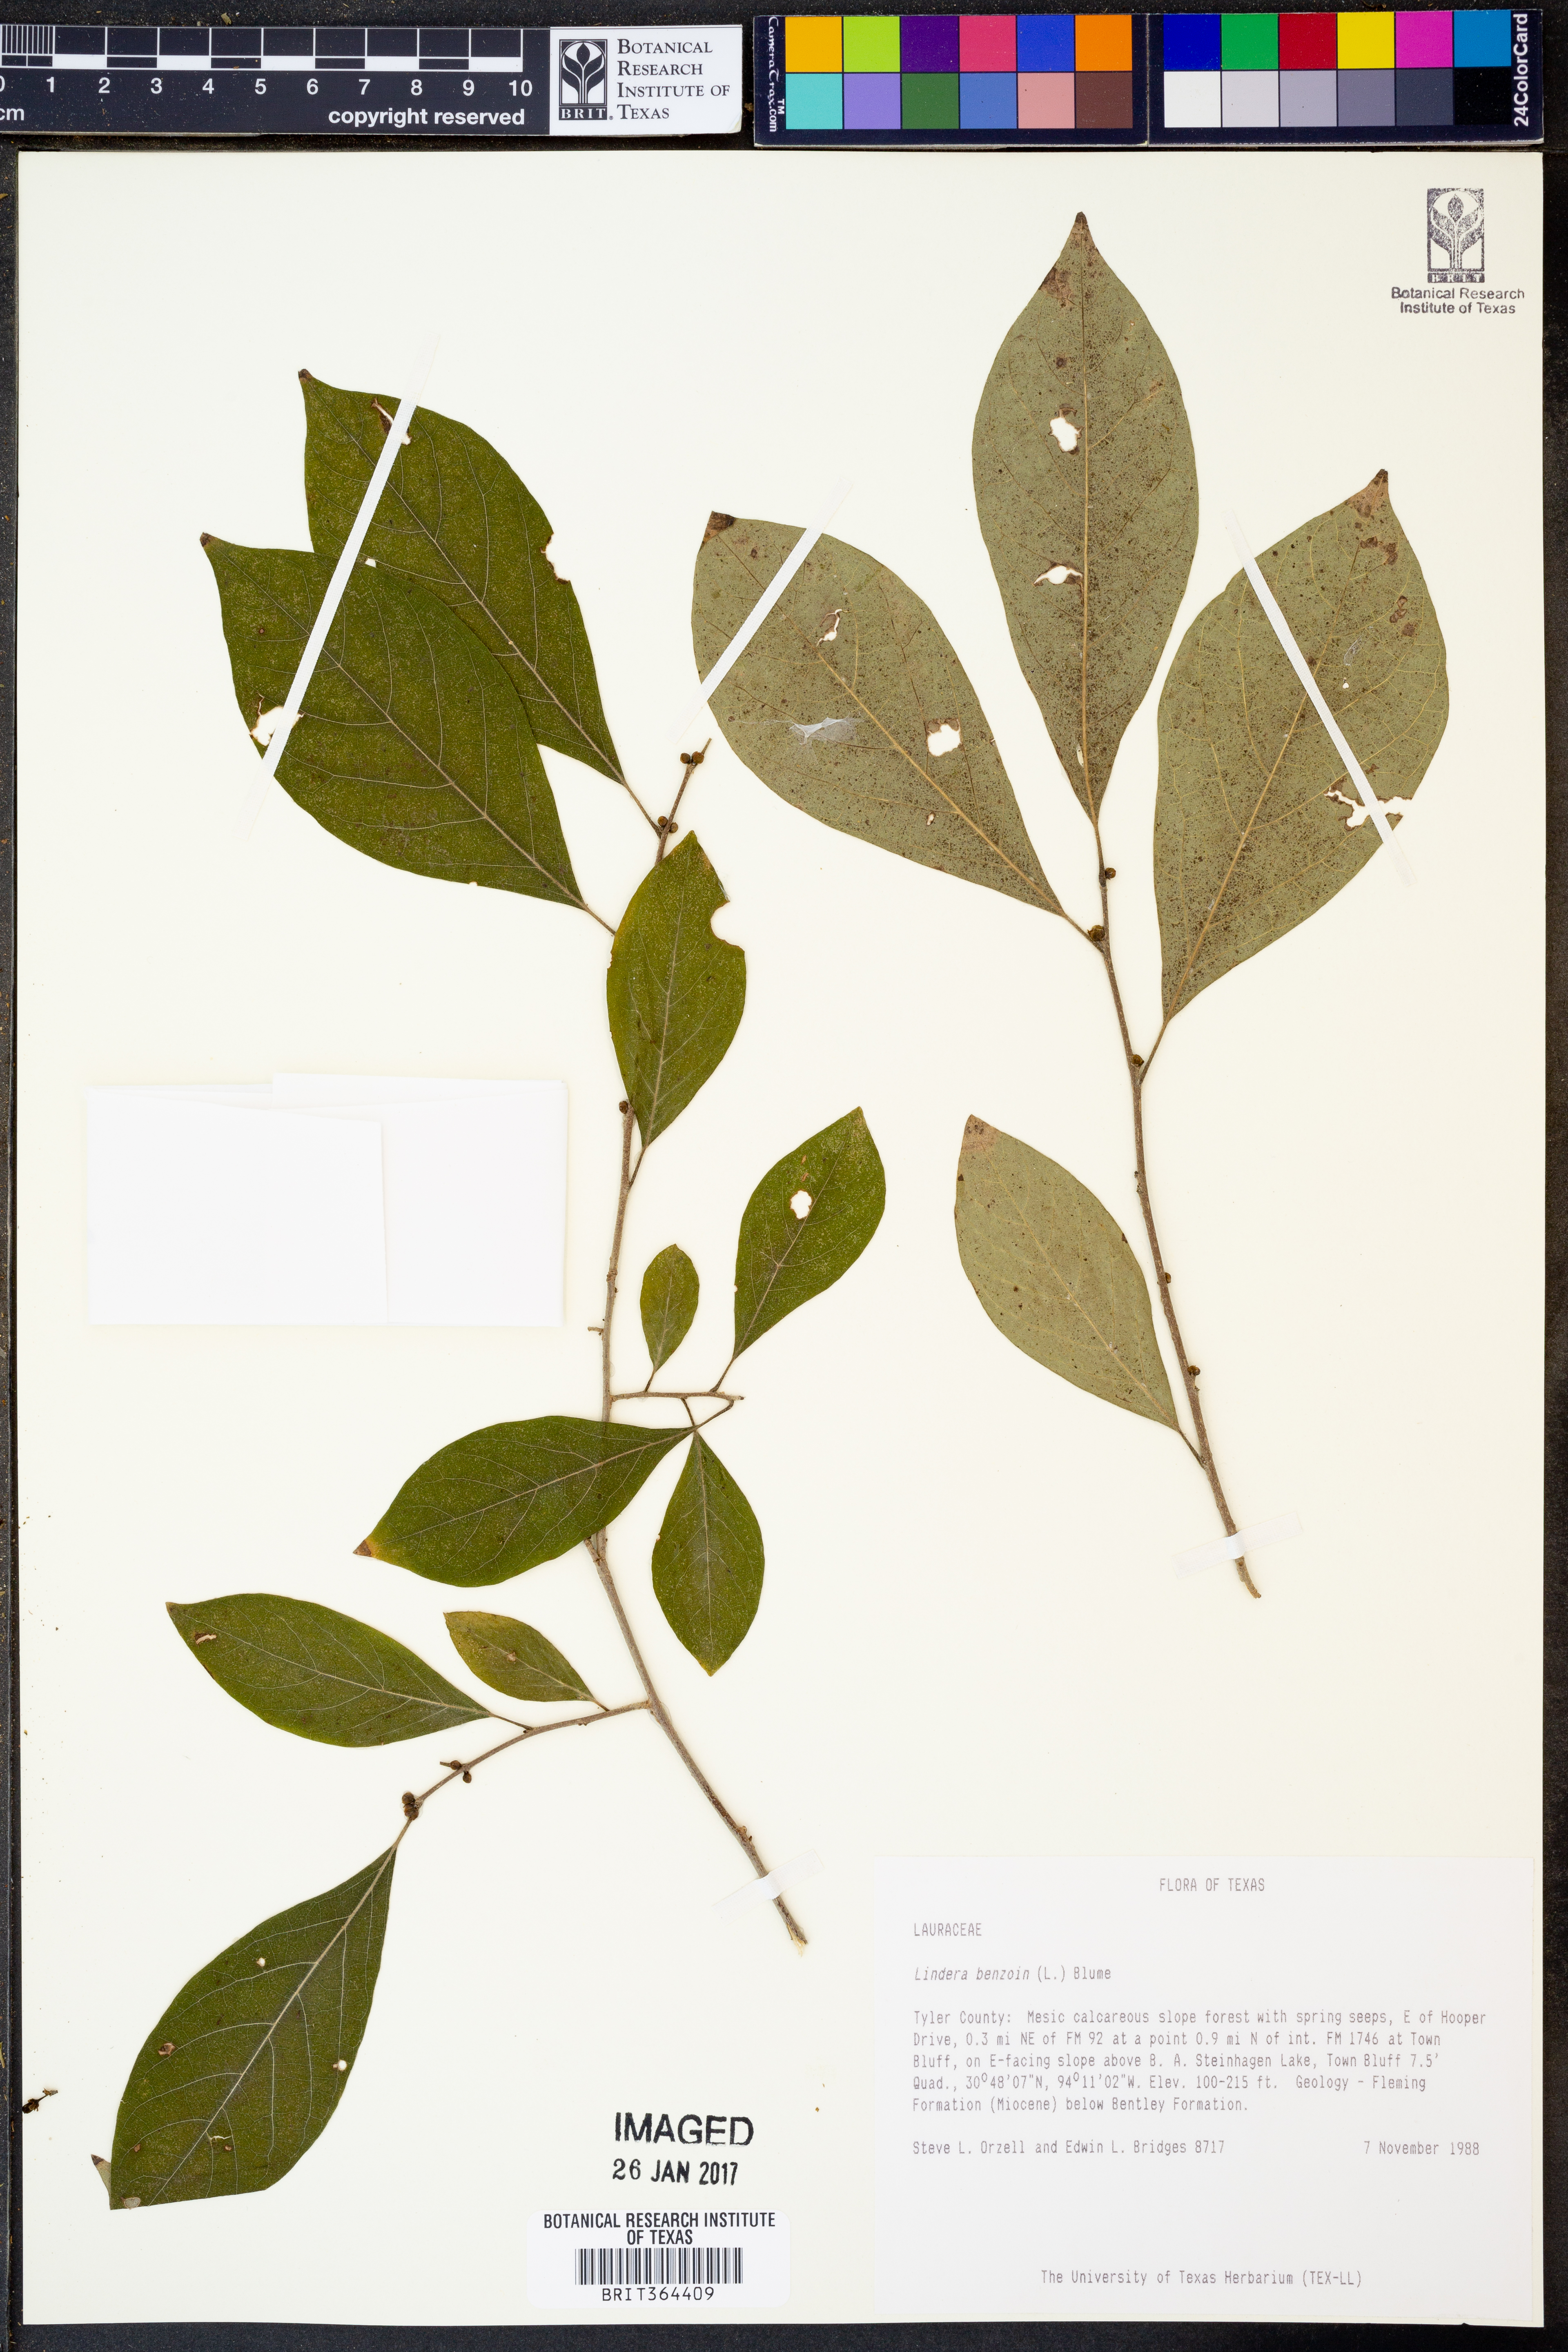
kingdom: Plantae
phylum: Tracheophyta
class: Magnoliopsida
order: Laurales
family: Lauraceae
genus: Lindera
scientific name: Lindera benzoin
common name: Spicebush
